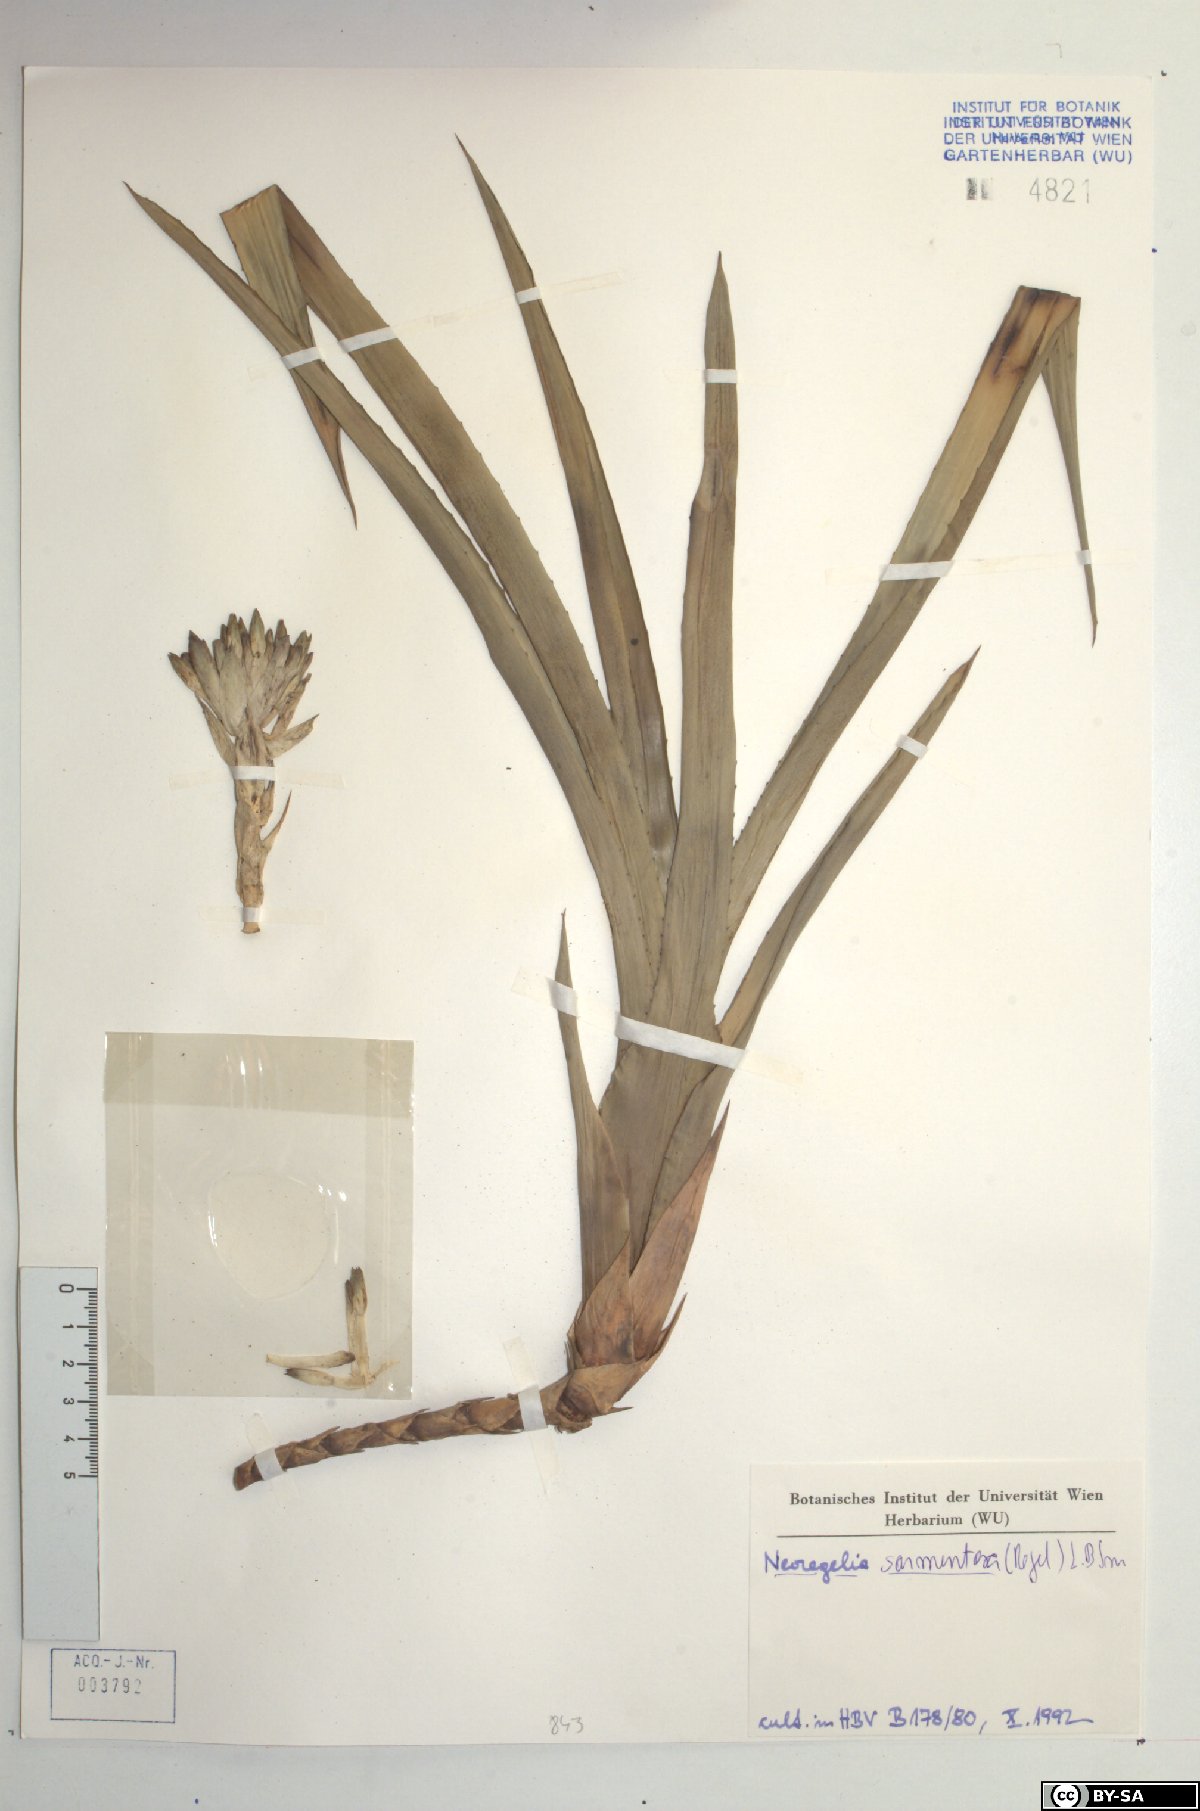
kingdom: Plantae
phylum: Tracheophyta
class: Liliopsida
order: Poales
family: Bromeliaceae
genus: Neoregelia
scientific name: Neoregelia sarmentosa
